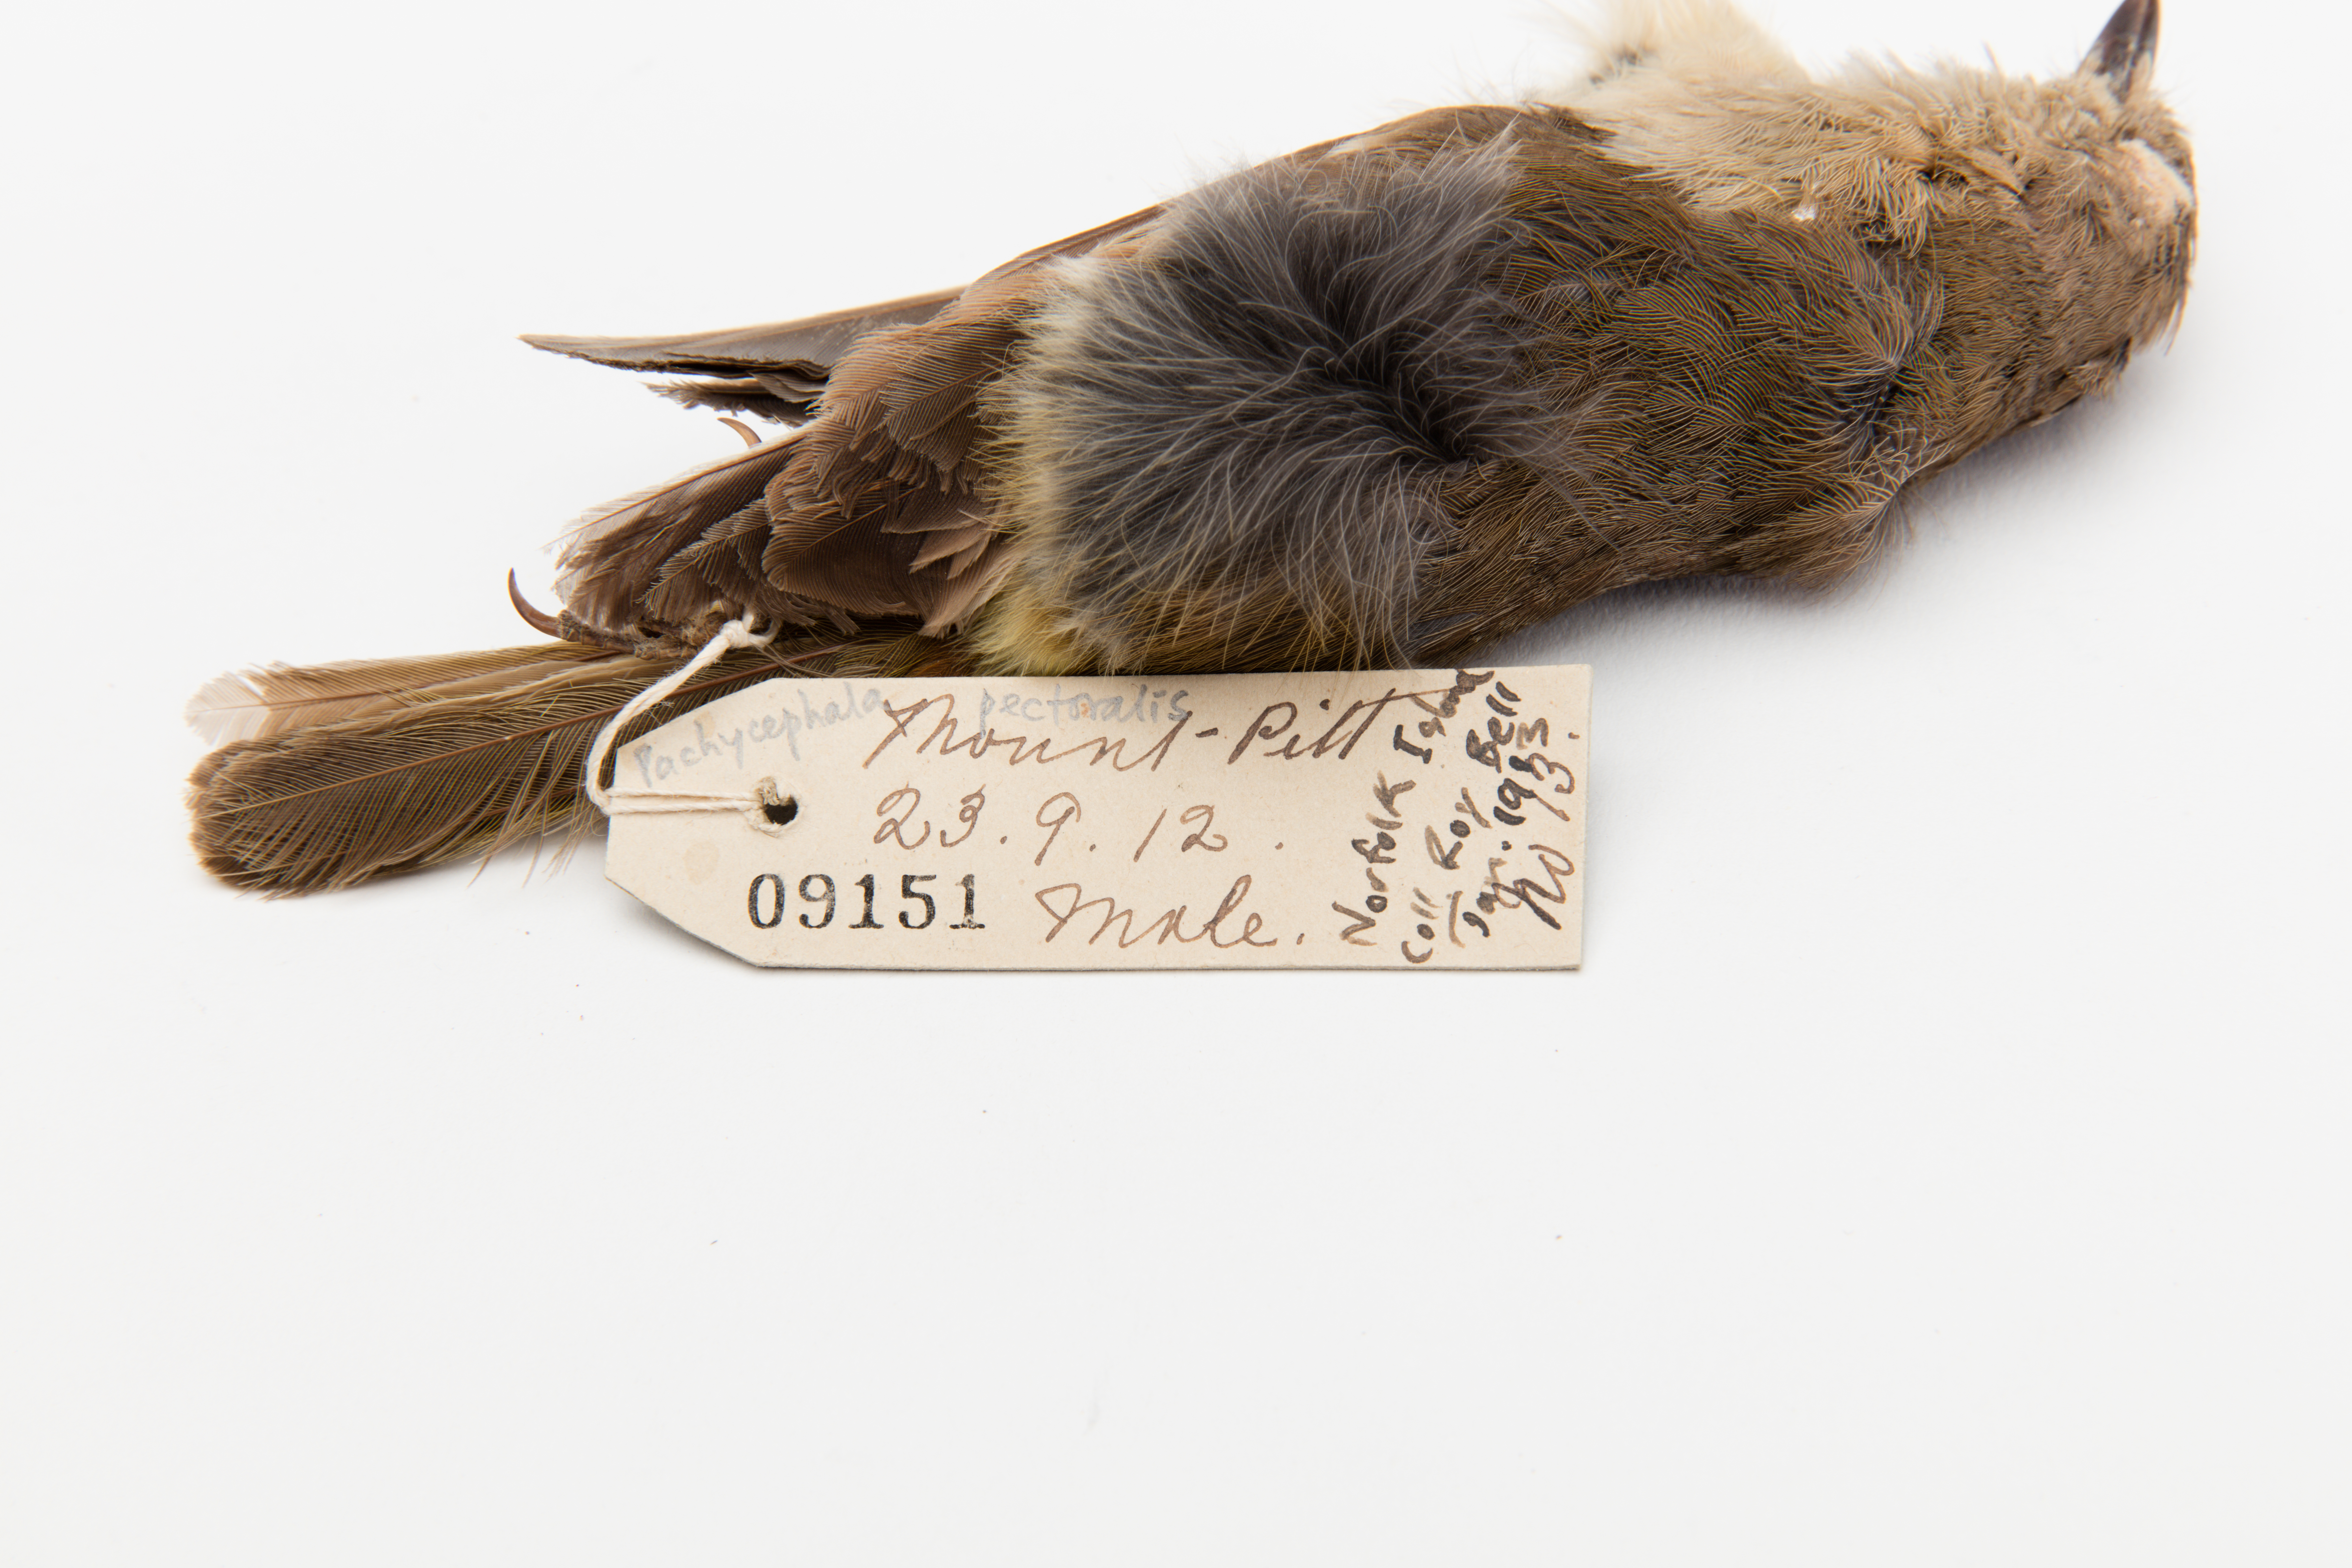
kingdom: Animalia
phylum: Chordata
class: Aves
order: Passeriformes
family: Pachycephalidae
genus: Pachycephala
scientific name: Pachycephala pectoralis
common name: Australian golden whistler
